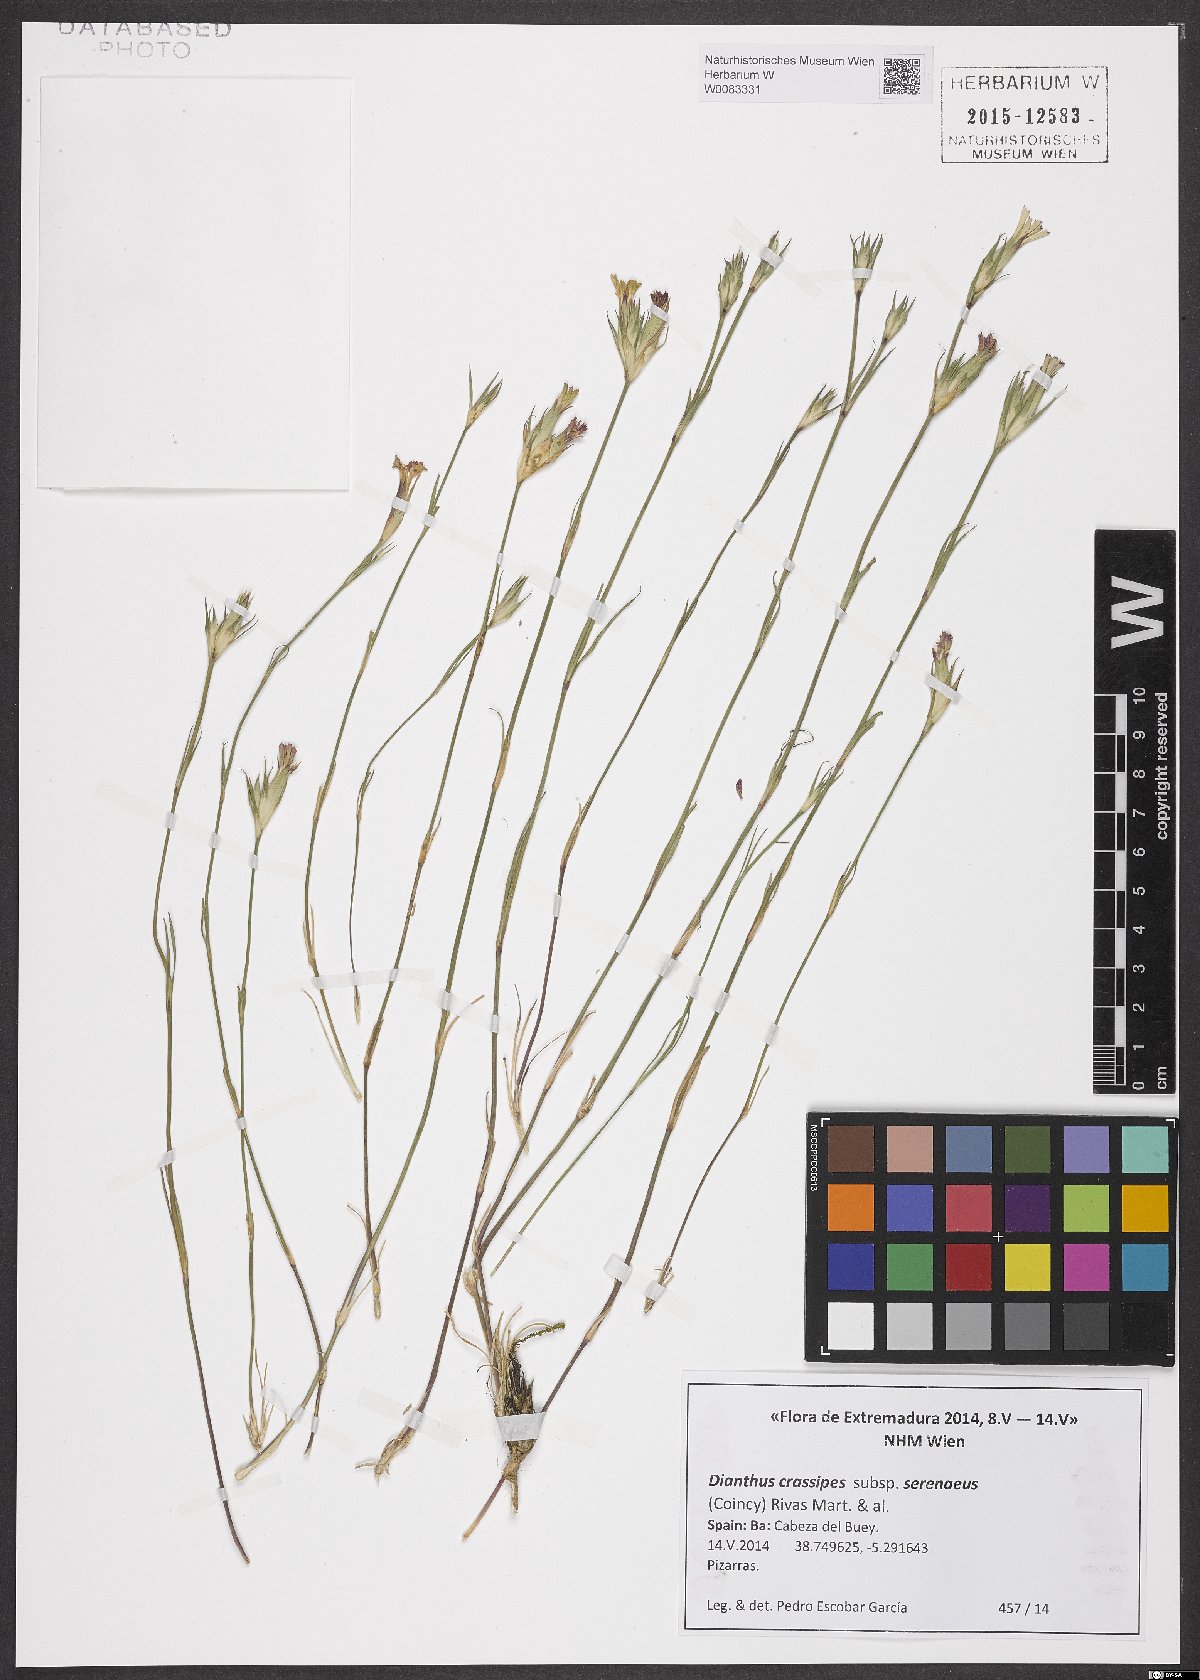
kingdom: Plantae
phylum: Tracheophyta
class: Magnoliopsida
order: Caryophyllales
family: Caryophyllaceae
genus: Dianthus
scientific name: Dianthus crassipes
